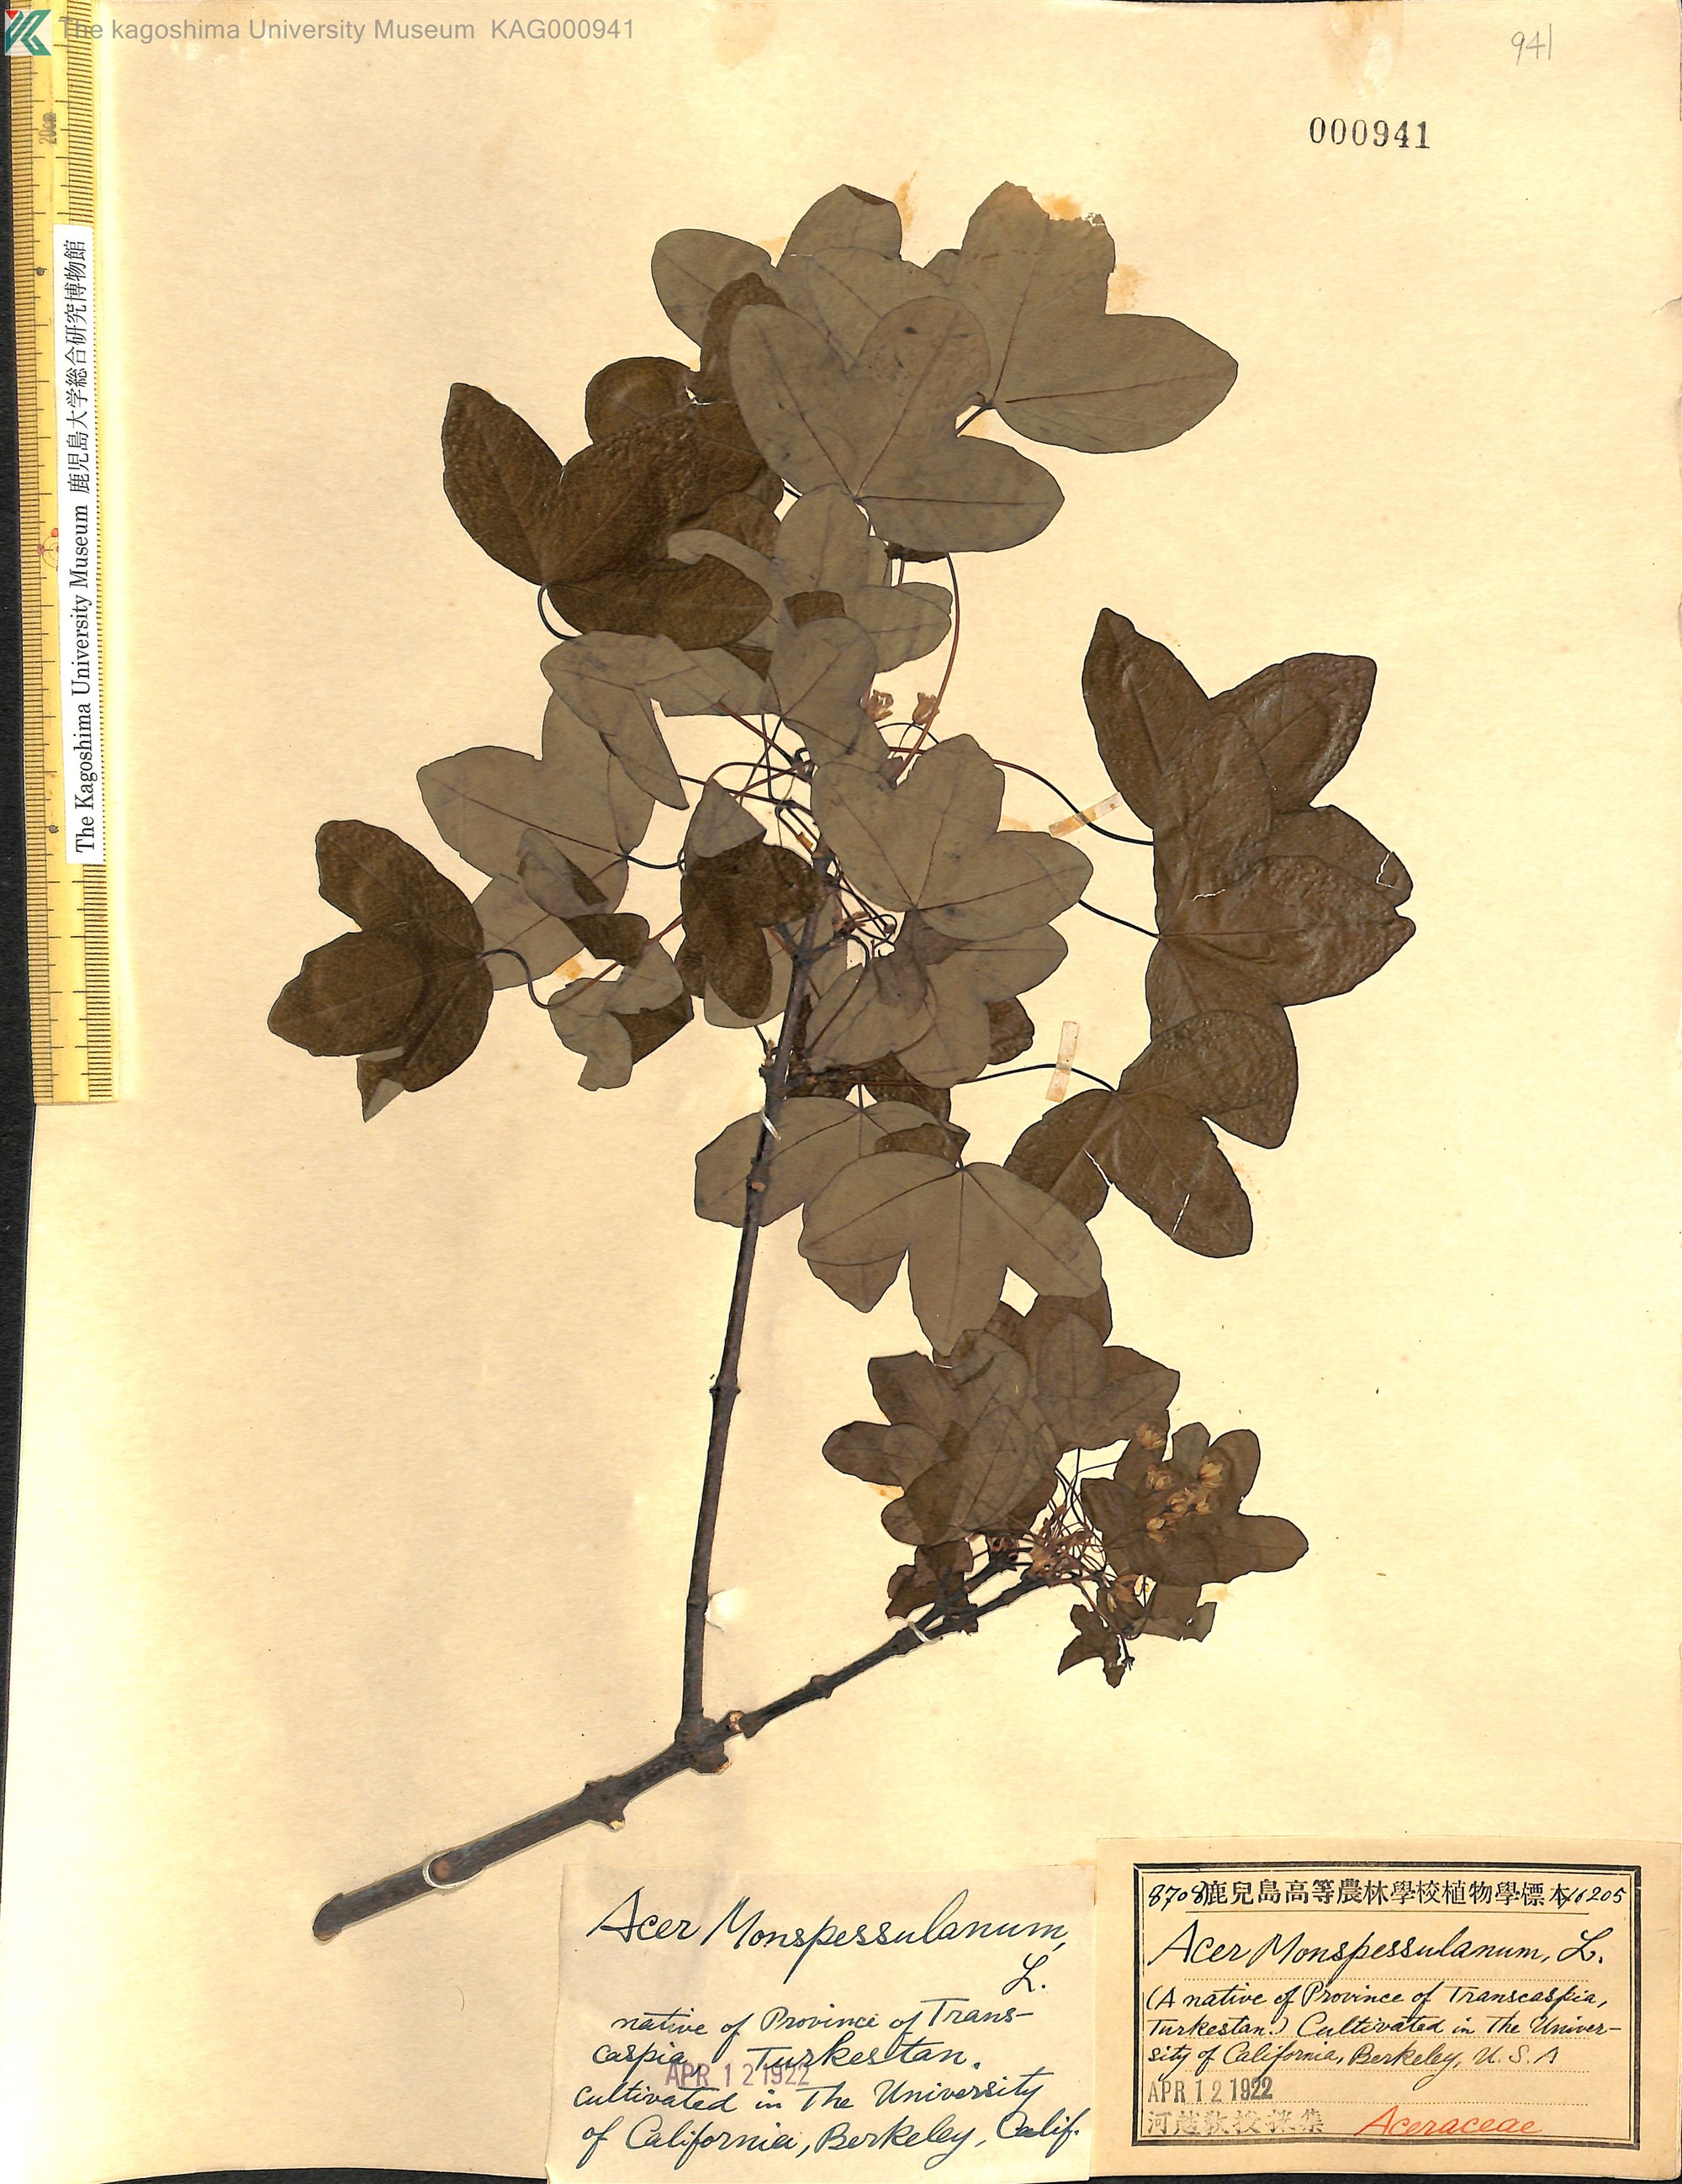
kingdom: Plantae
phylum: Tracheophyta
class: Magnoliopsida
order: Sapindales
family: Sapindaceae
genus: Acer
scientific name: Acer monspessulanum
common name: Montpellier maple
